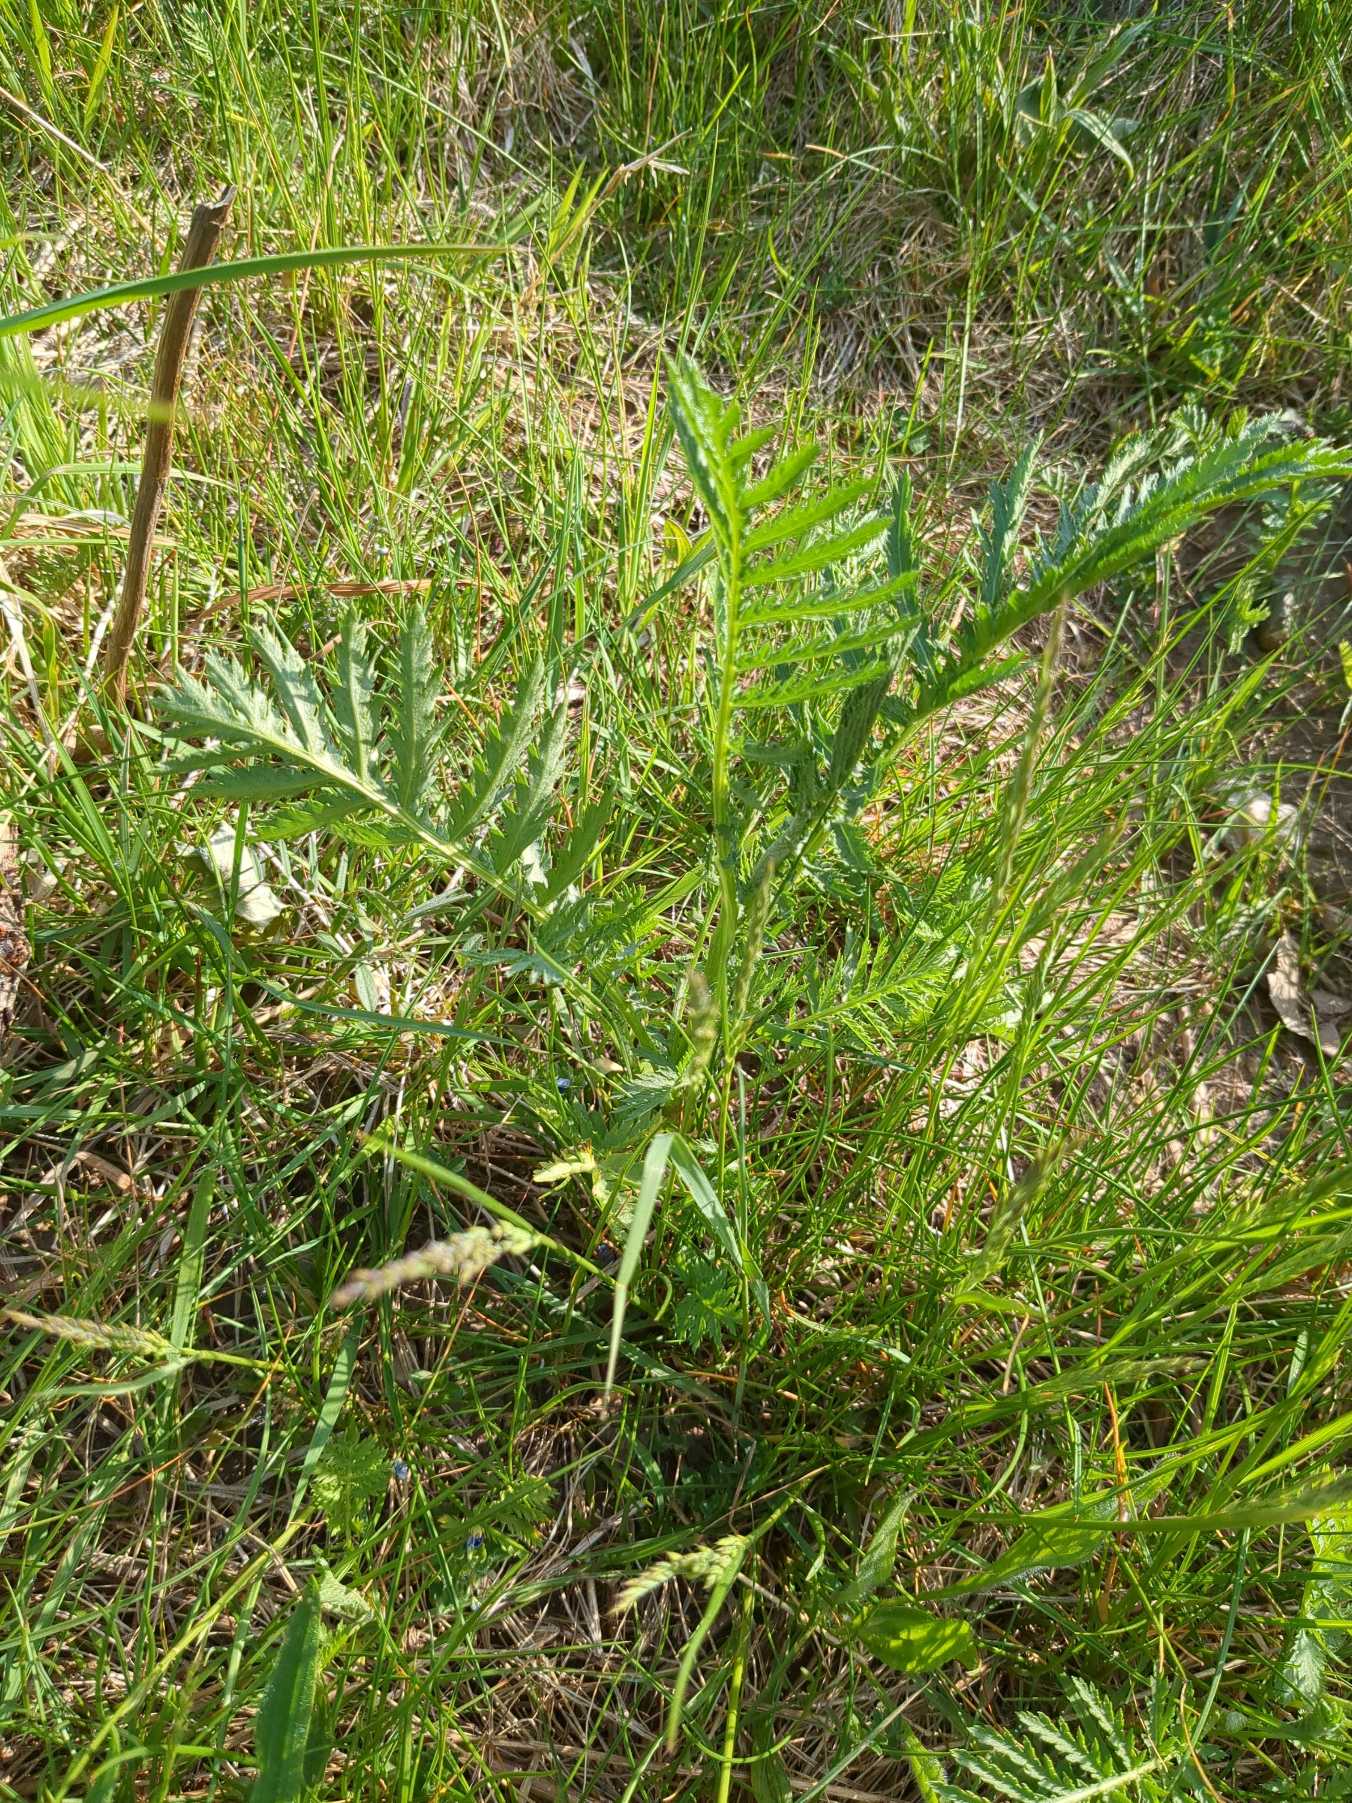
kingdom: Plantae
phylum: Tracheophyta
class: Magnoliopsida
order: Asterales
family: Asteraceae
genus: Tanacetum
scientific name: Tanacetum vulgare
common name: Rejnfan
